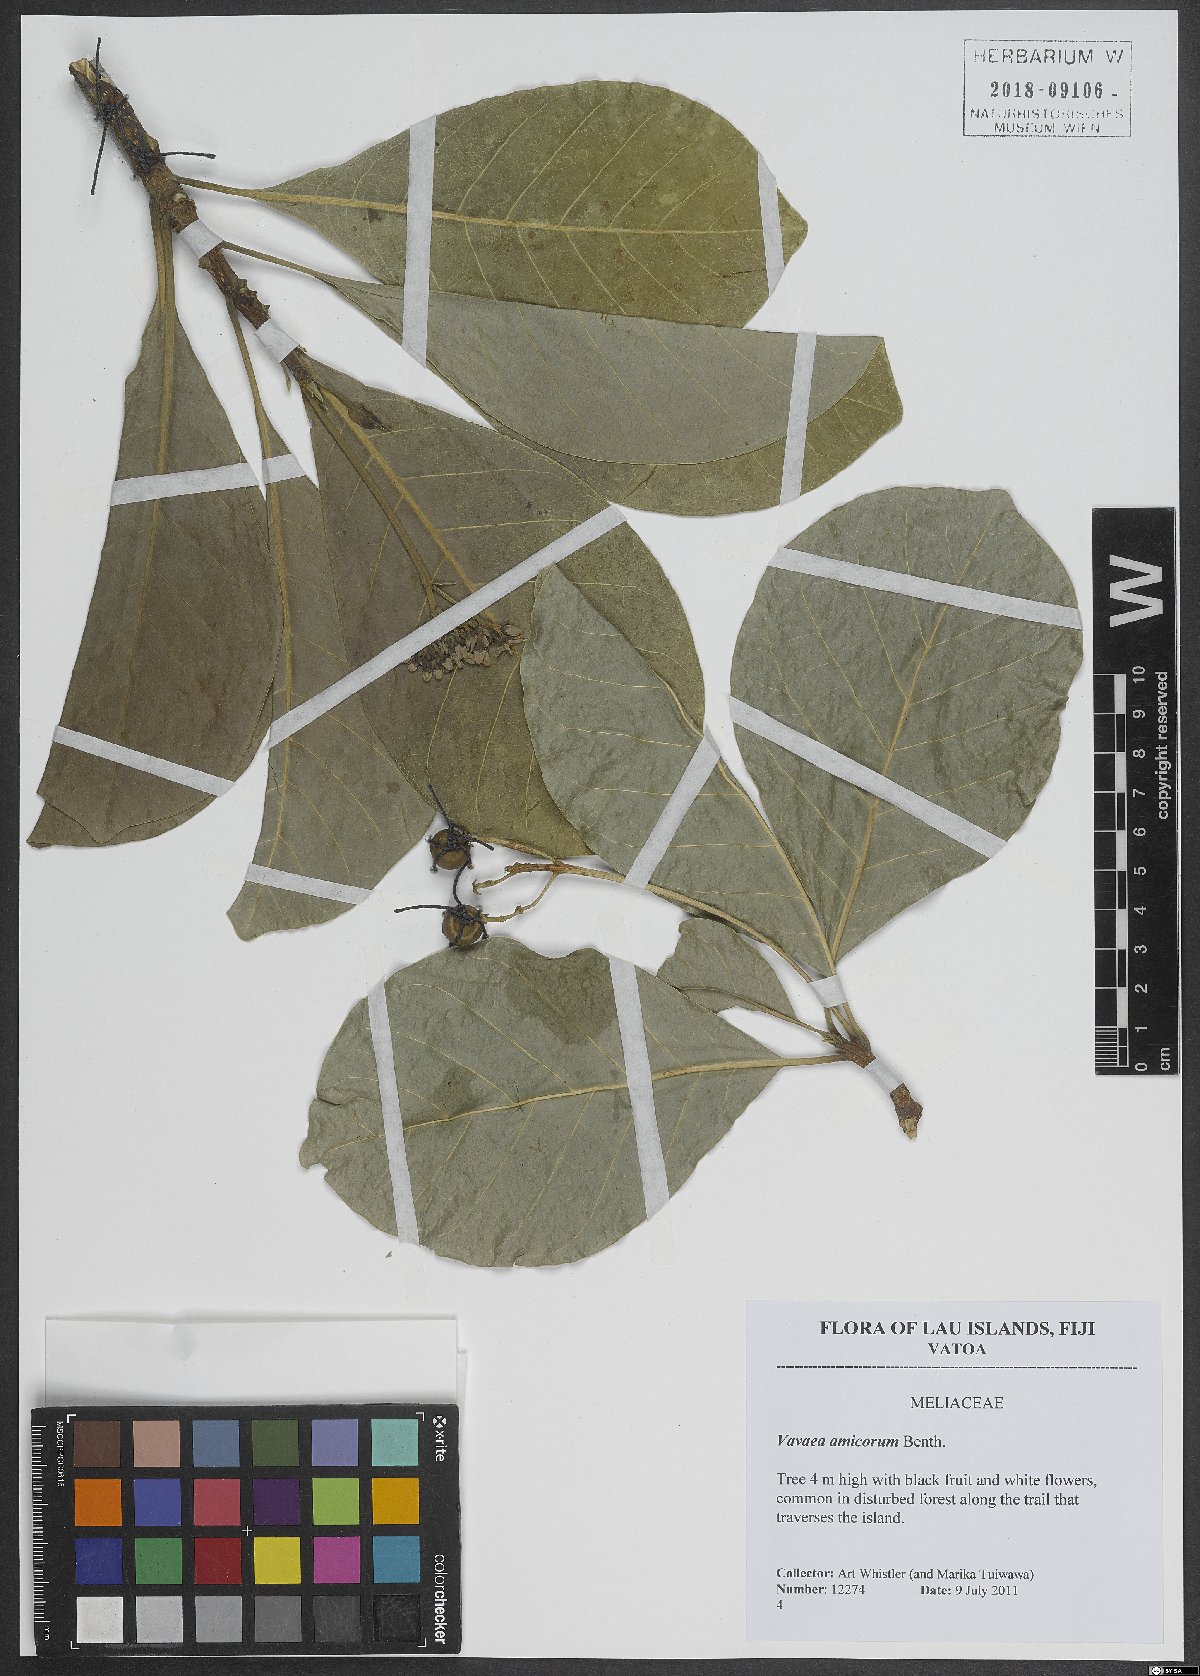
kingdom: Plantae
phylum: Tracheophyta
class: Magnoliopsida
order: Sapindales
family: Meliaceae
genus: Vavaea
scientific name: Vavaea amicorum
